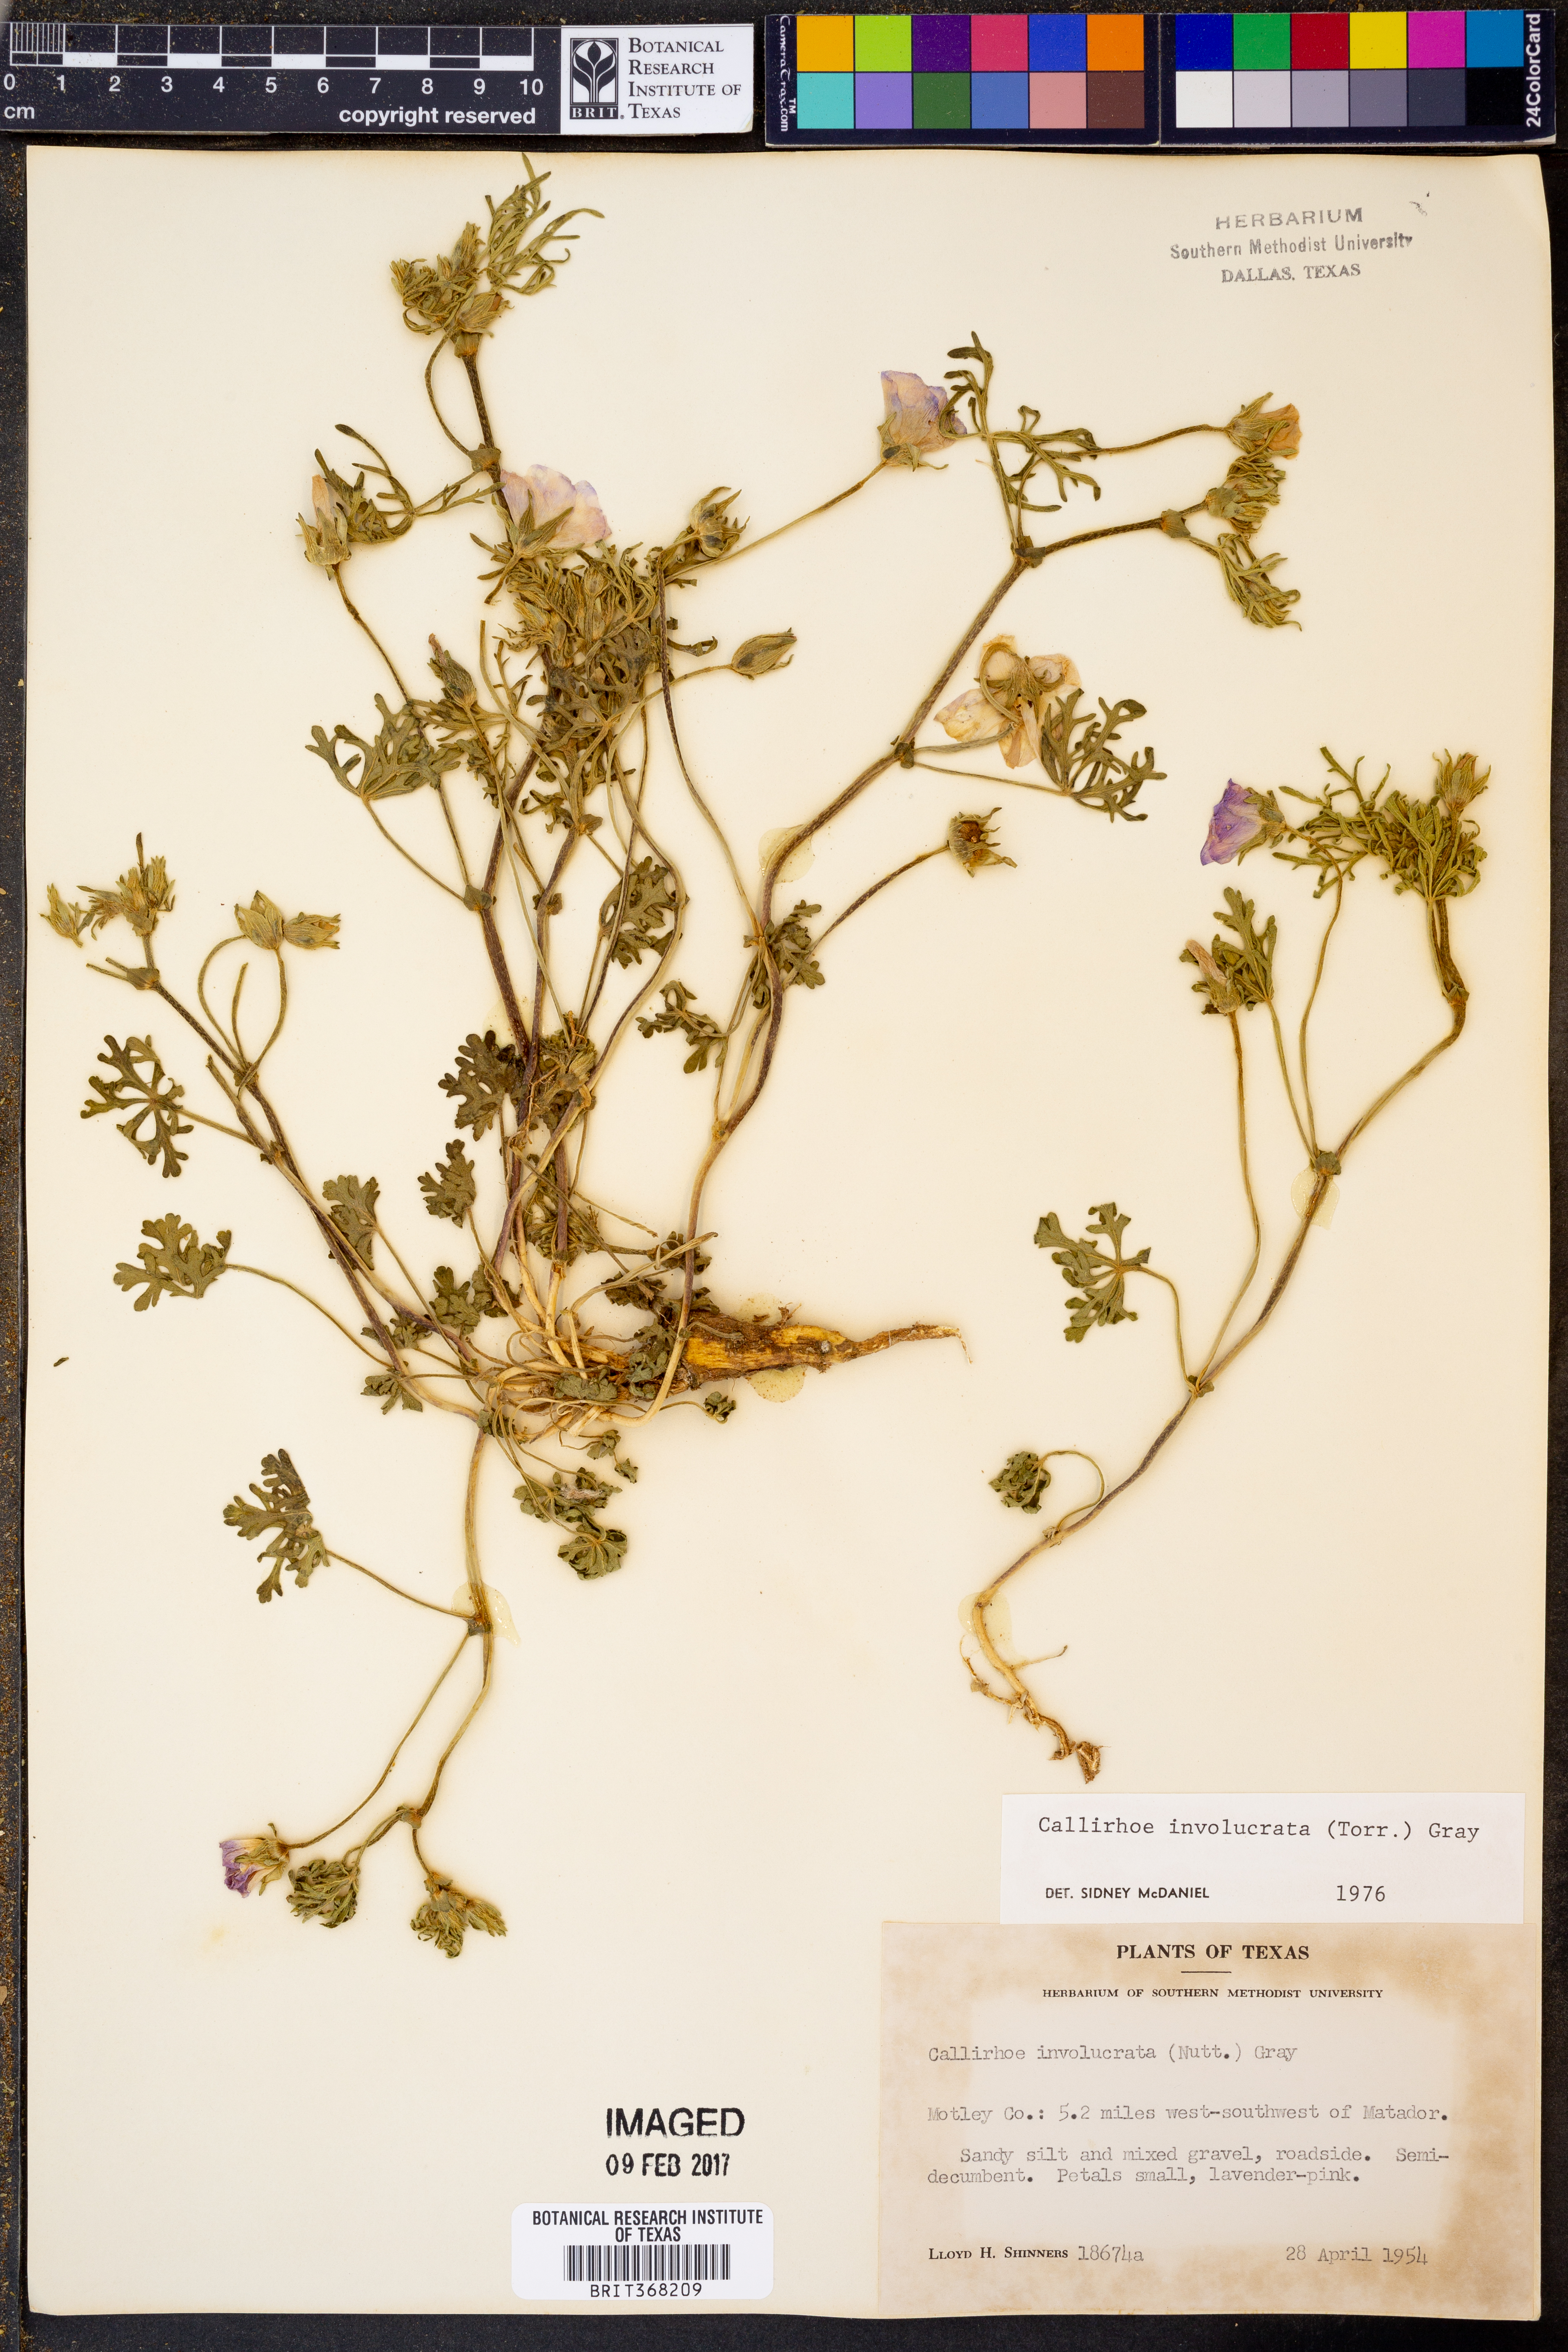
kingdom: Plantae
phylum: Tracheophyta
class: Magnoliopsida
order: Malvales
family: Malvaceae
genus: Callirhoe
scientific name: Callirhoe involucrata
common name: Purple poppy-mallow
